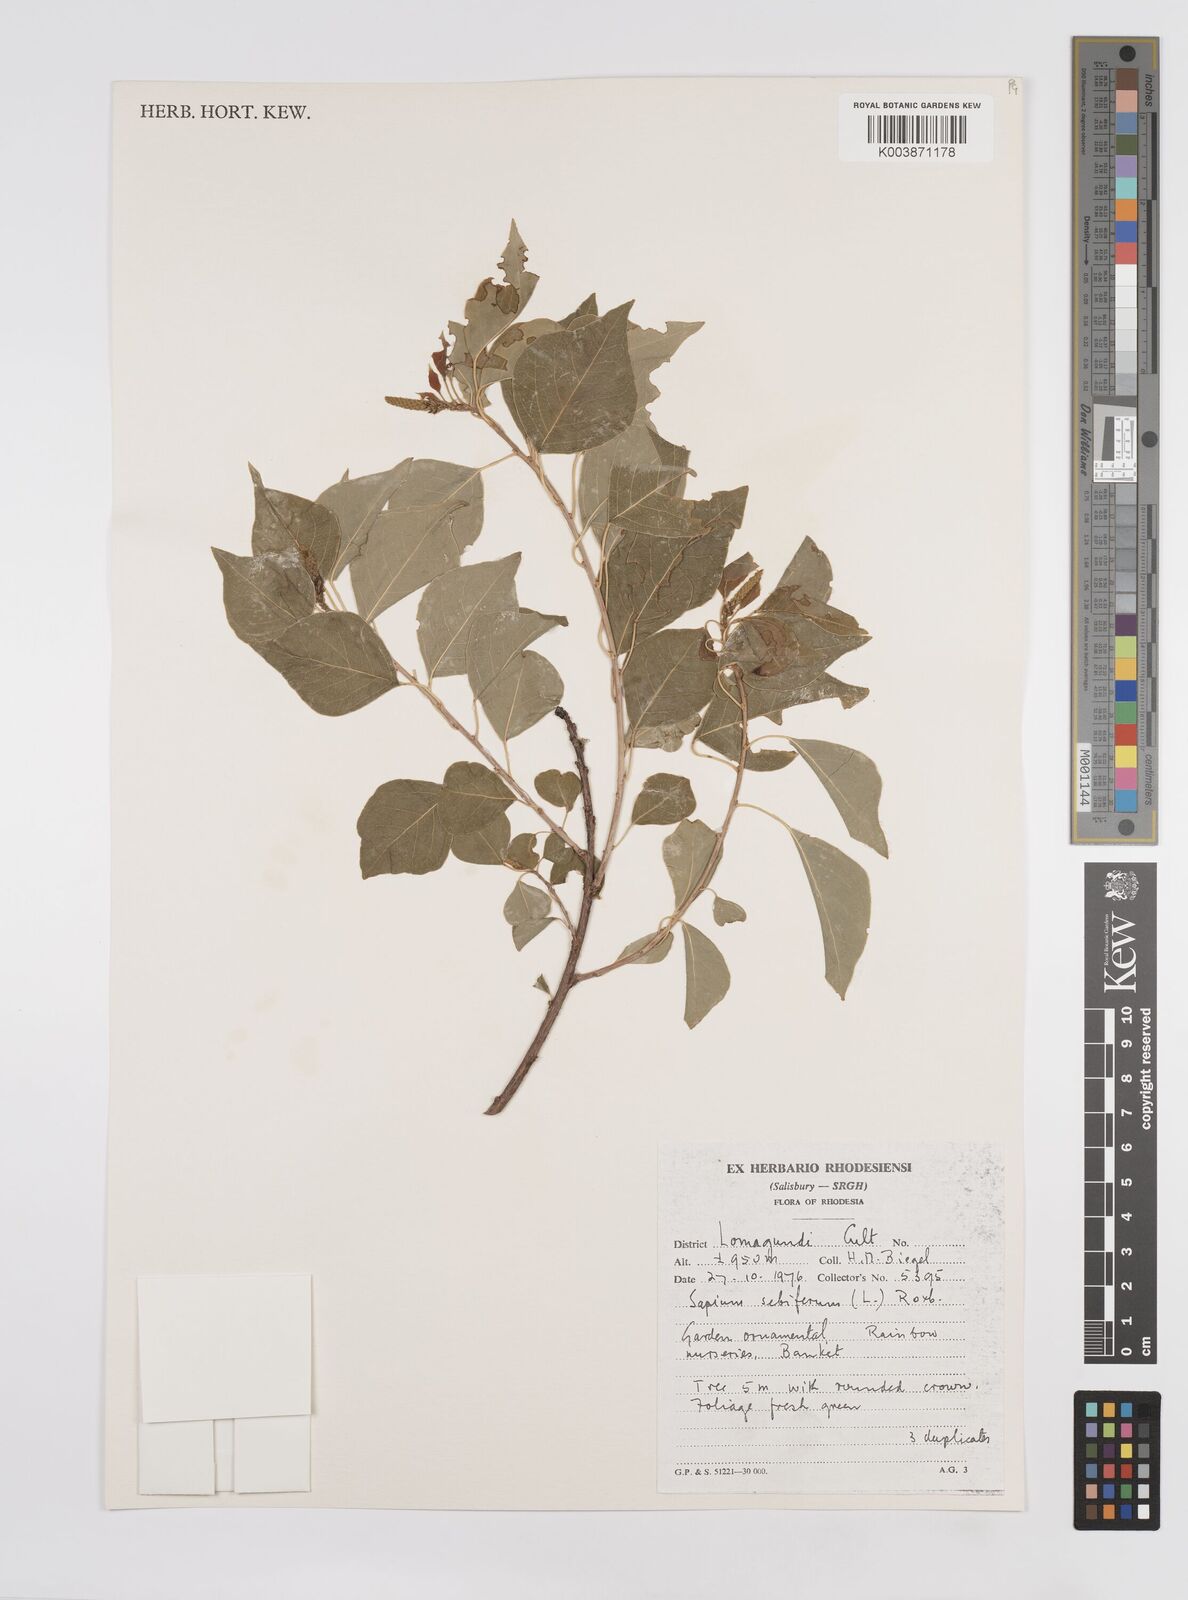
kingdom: Plantae
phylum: Tracheophyta
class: Magnoliopsida
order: Malpighiales
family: Euphorbiaceae
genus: Triadica
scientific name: Triadica sebifera
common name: Chinese tallow
